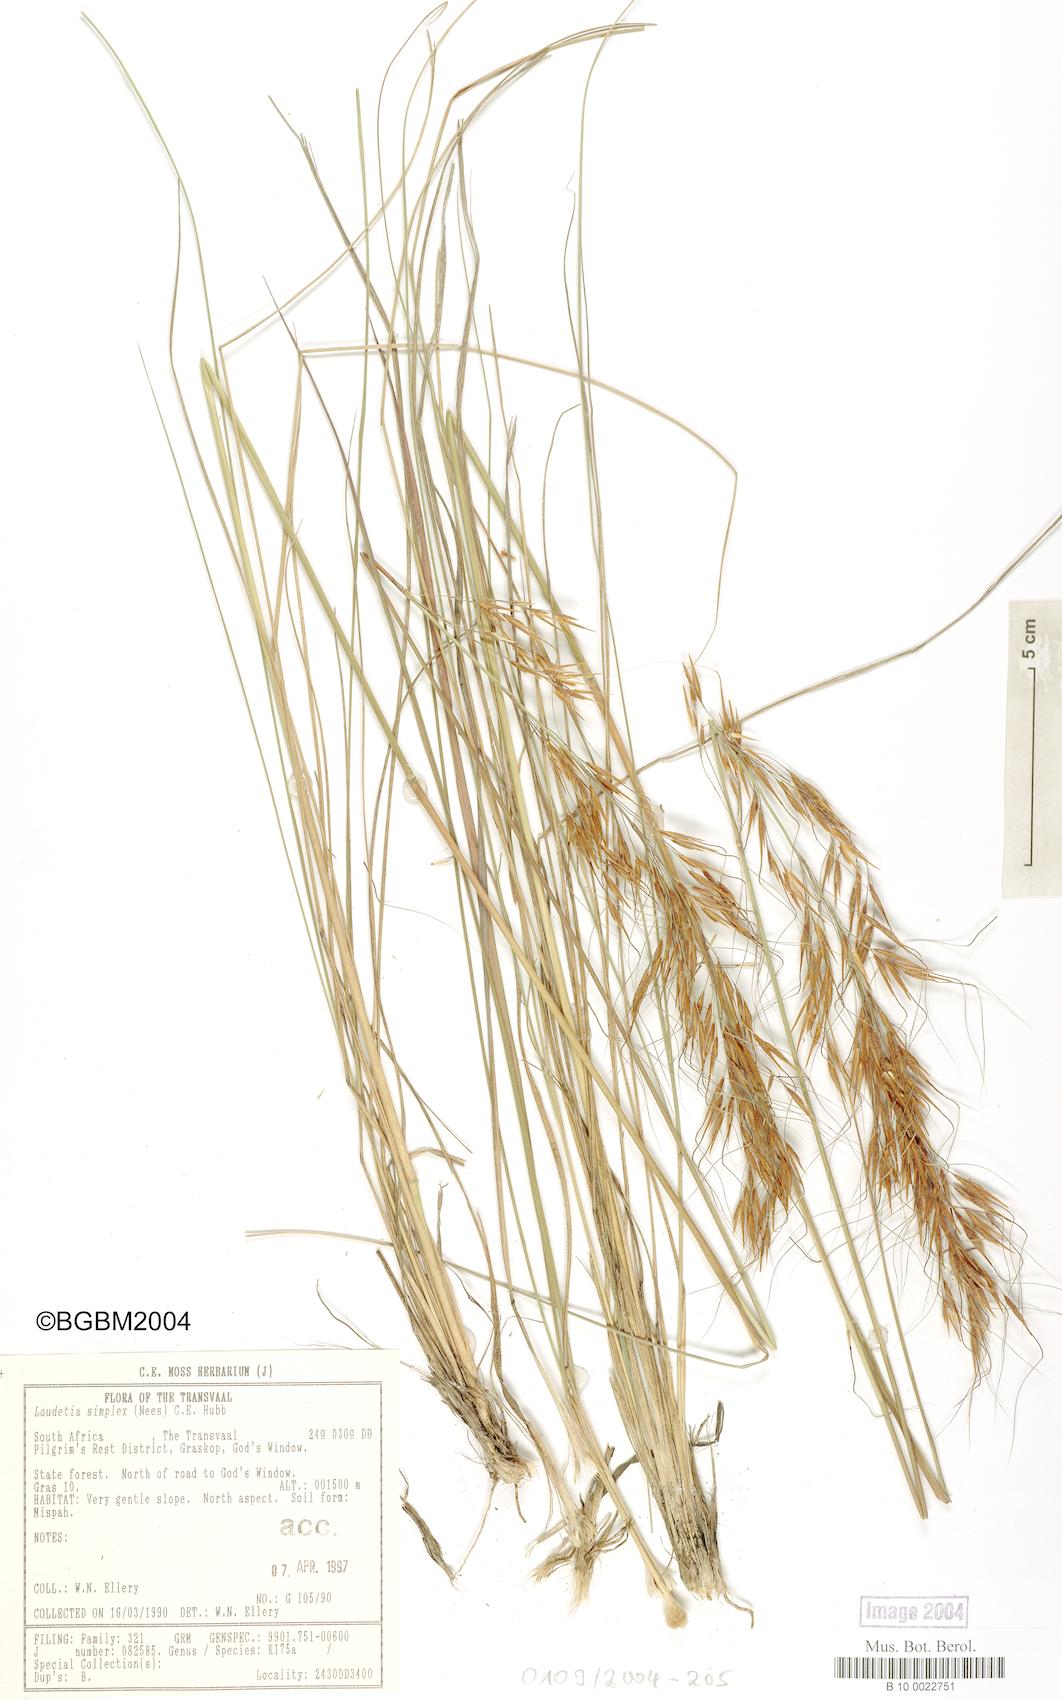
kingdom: Plantae
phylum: Tracheophyta
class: Liliopsida
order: Poales
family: Poaceae
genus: Loudetia
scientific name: Loudetia simplex
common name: Common russet grass
